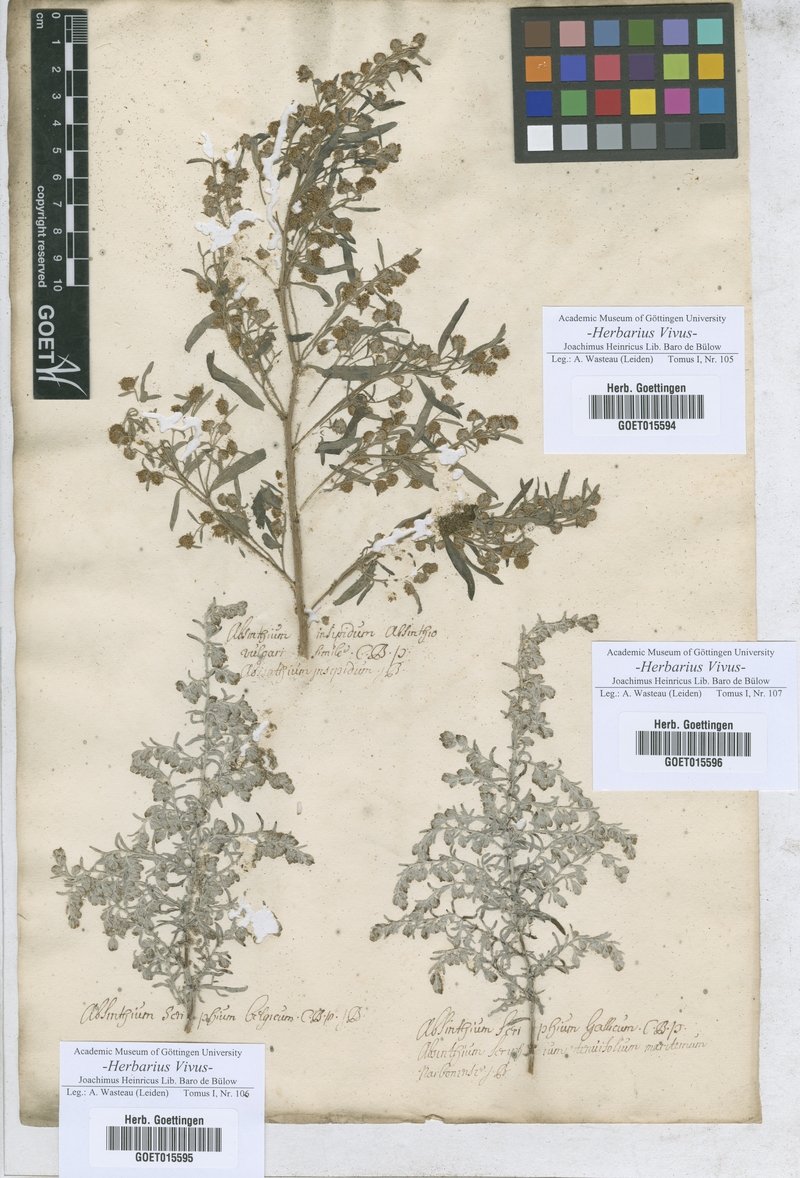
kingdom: Plantae
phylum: Tracheophyta
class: Magnoliopsida
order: Asterales
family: Asteraceae
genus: Artemisia
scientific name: Artemisia
